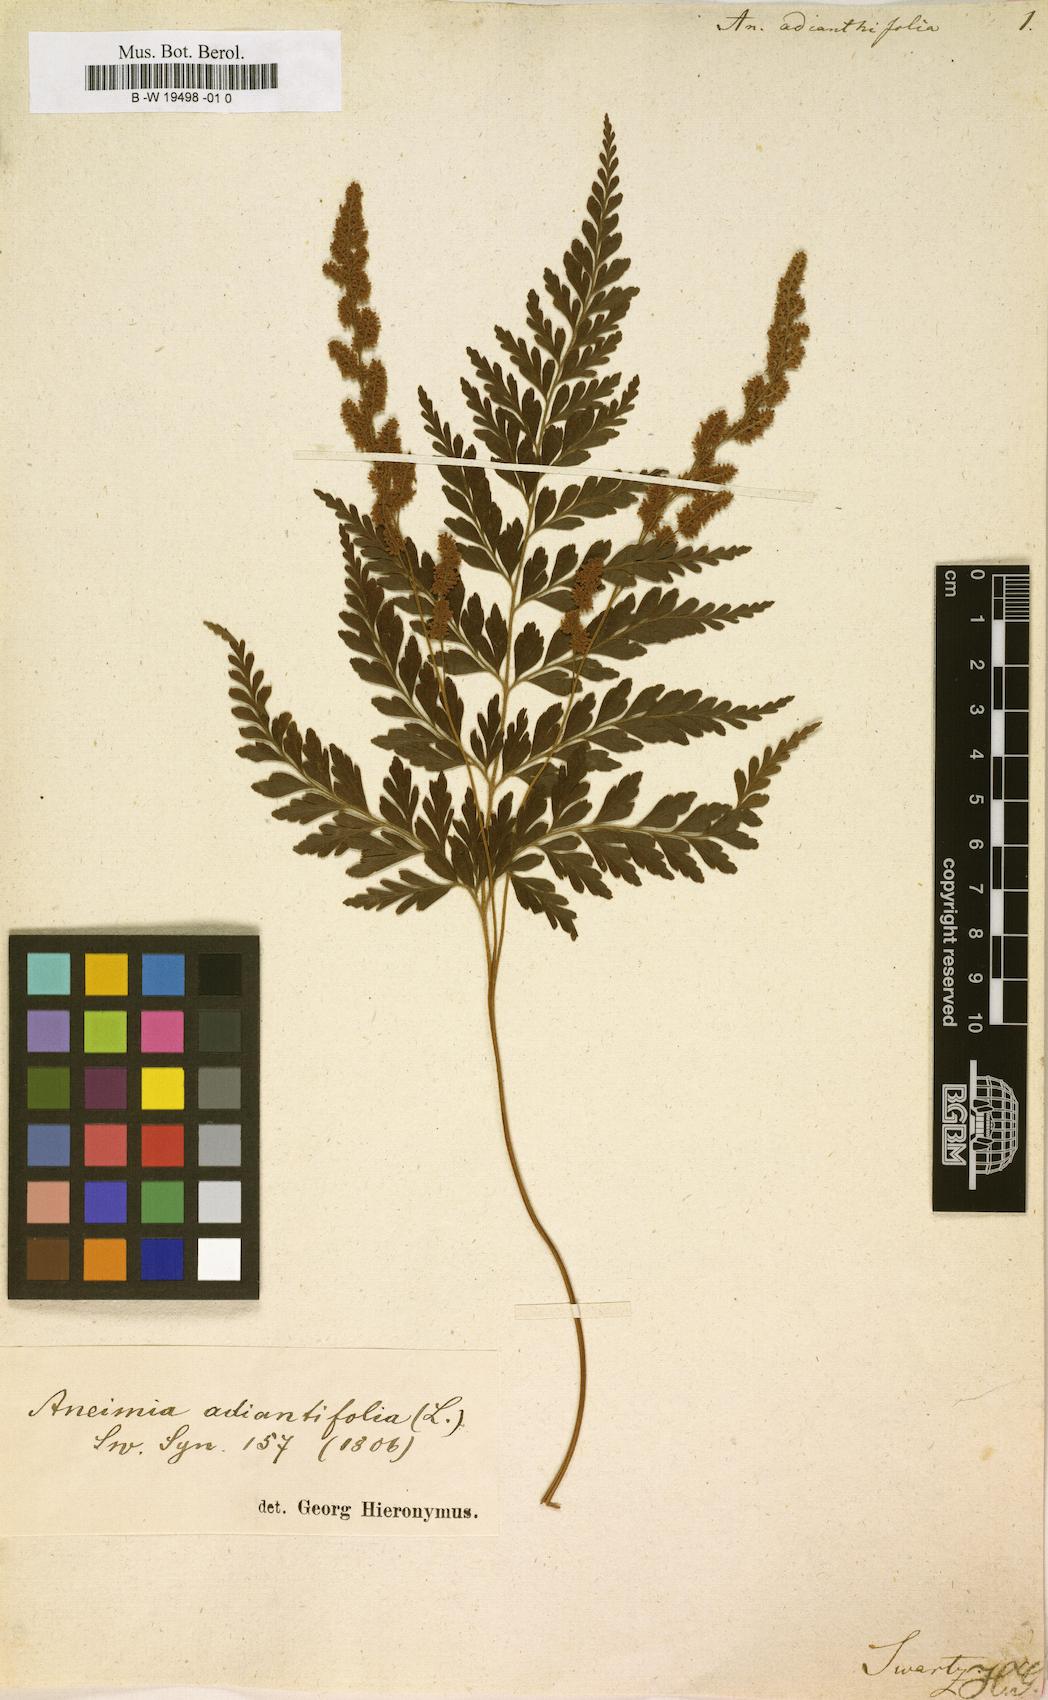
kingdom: Plantae
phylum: Tracheophyta
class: Polypodiopsida
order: Schizaeales
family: Anemiaceae
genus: Anemia
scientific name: Anemia adiantifolia
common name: Pine fern
